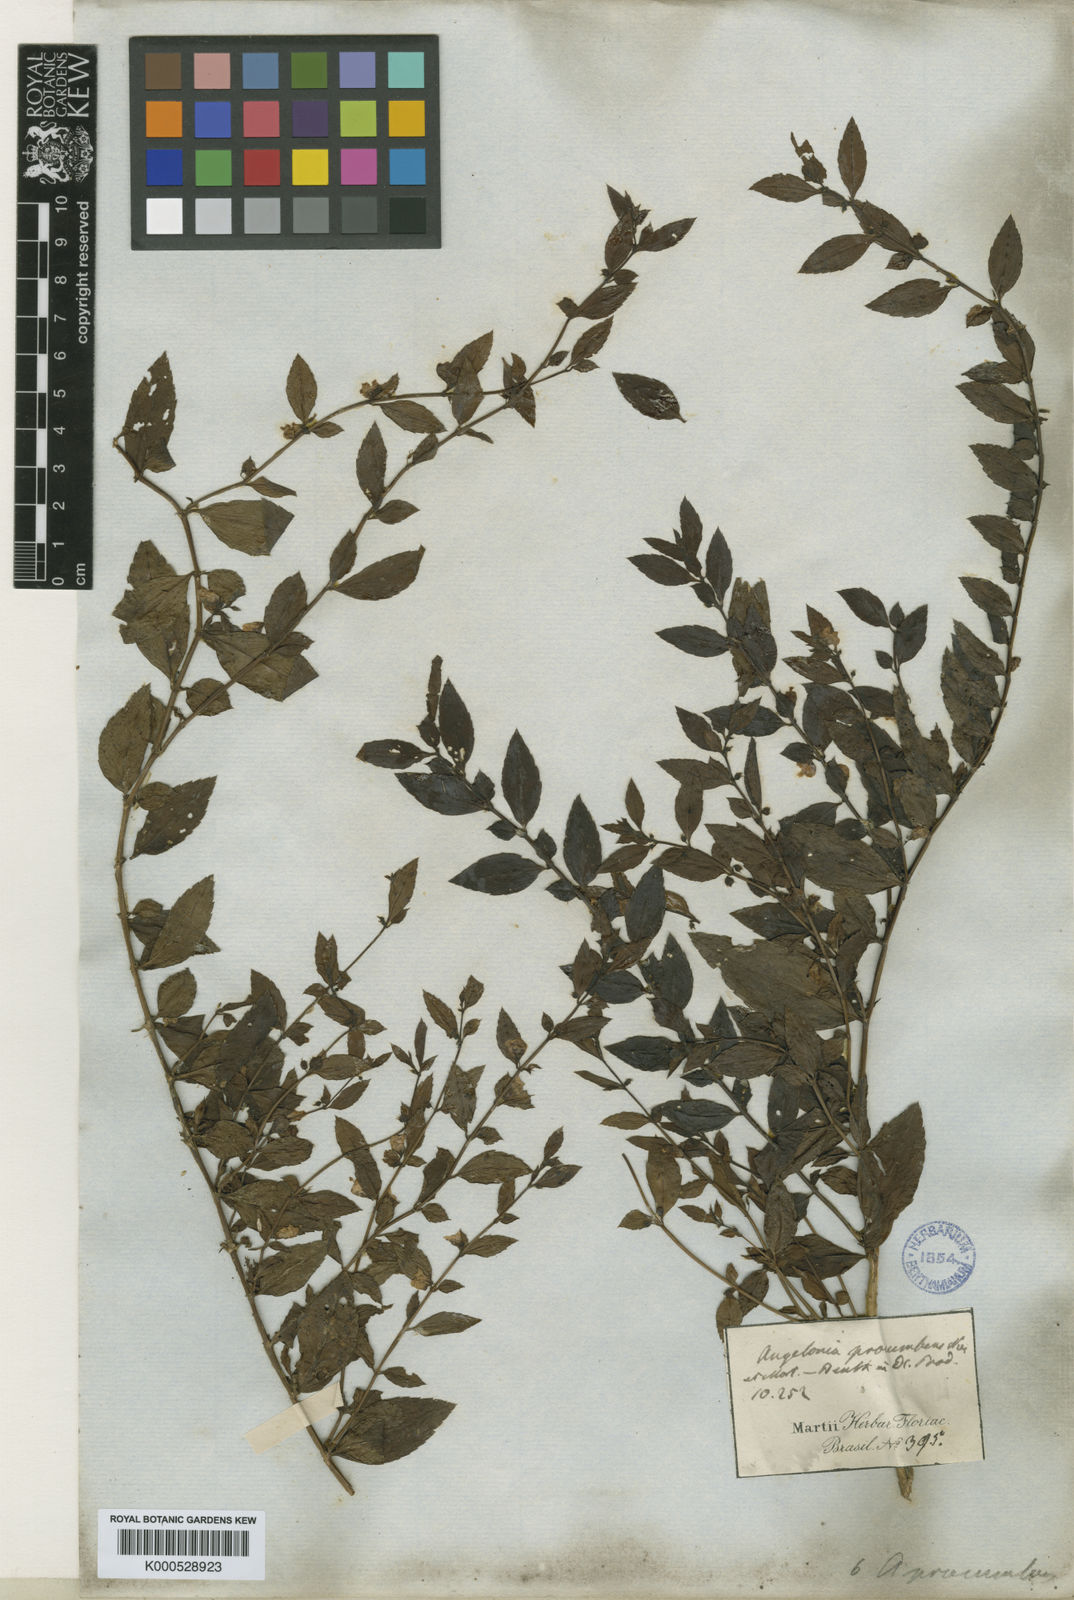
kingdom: Plantae
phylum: Tracheophyta
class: Magnoliopsida
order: Lamiales
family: Plantaginaceae
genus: Angelonia
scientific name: Angelonia procumbens
